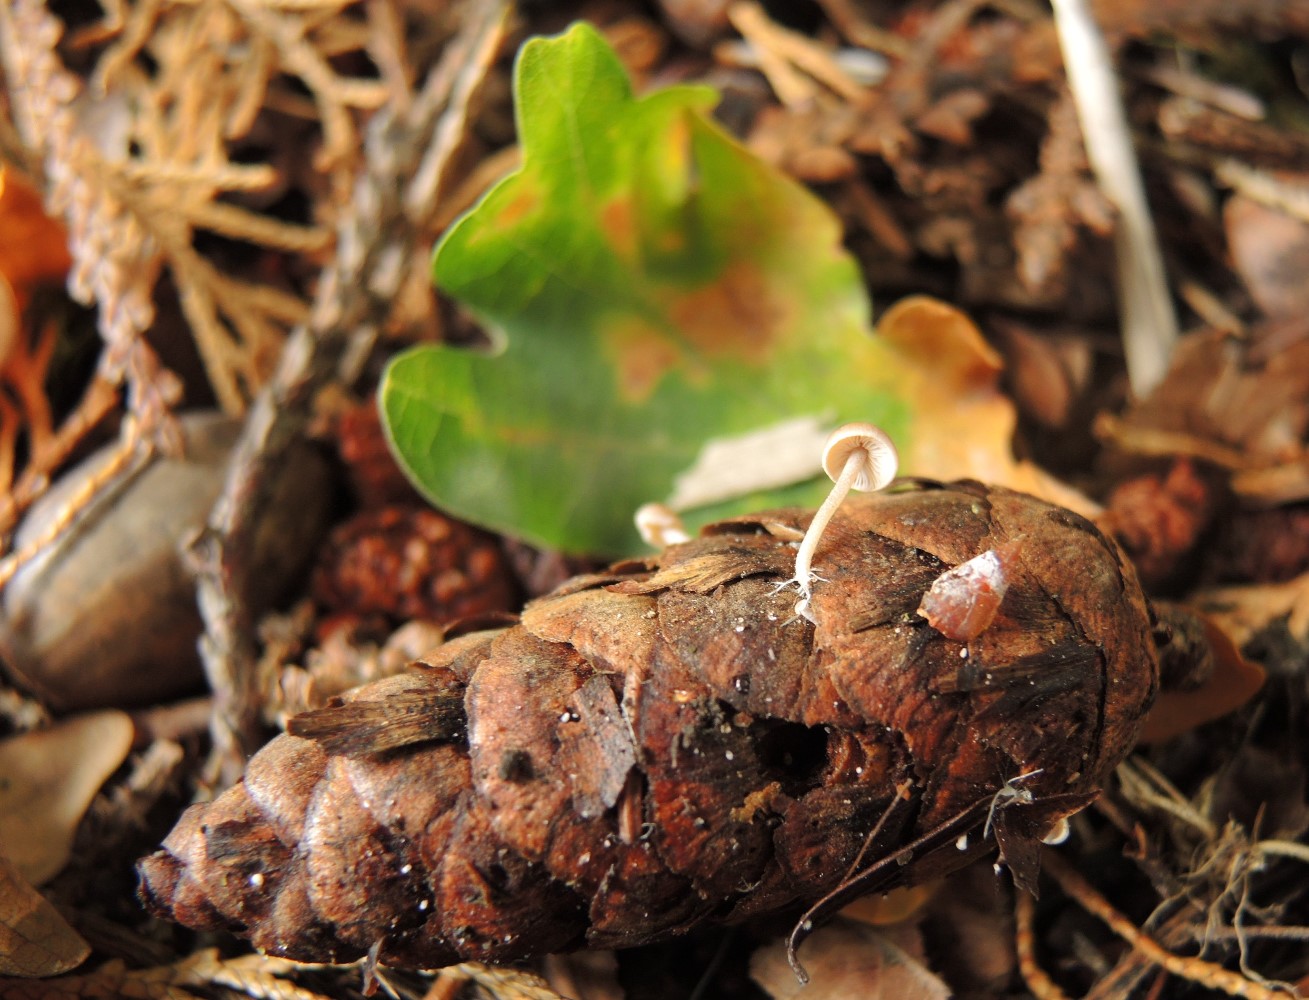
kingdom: Fungi
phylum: Basidiomycota
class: Agaricomycetes
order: Agaricales
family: Marasmiaceae
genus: Baeospora
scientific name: Baeospora myosura
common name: koglebruskhat
